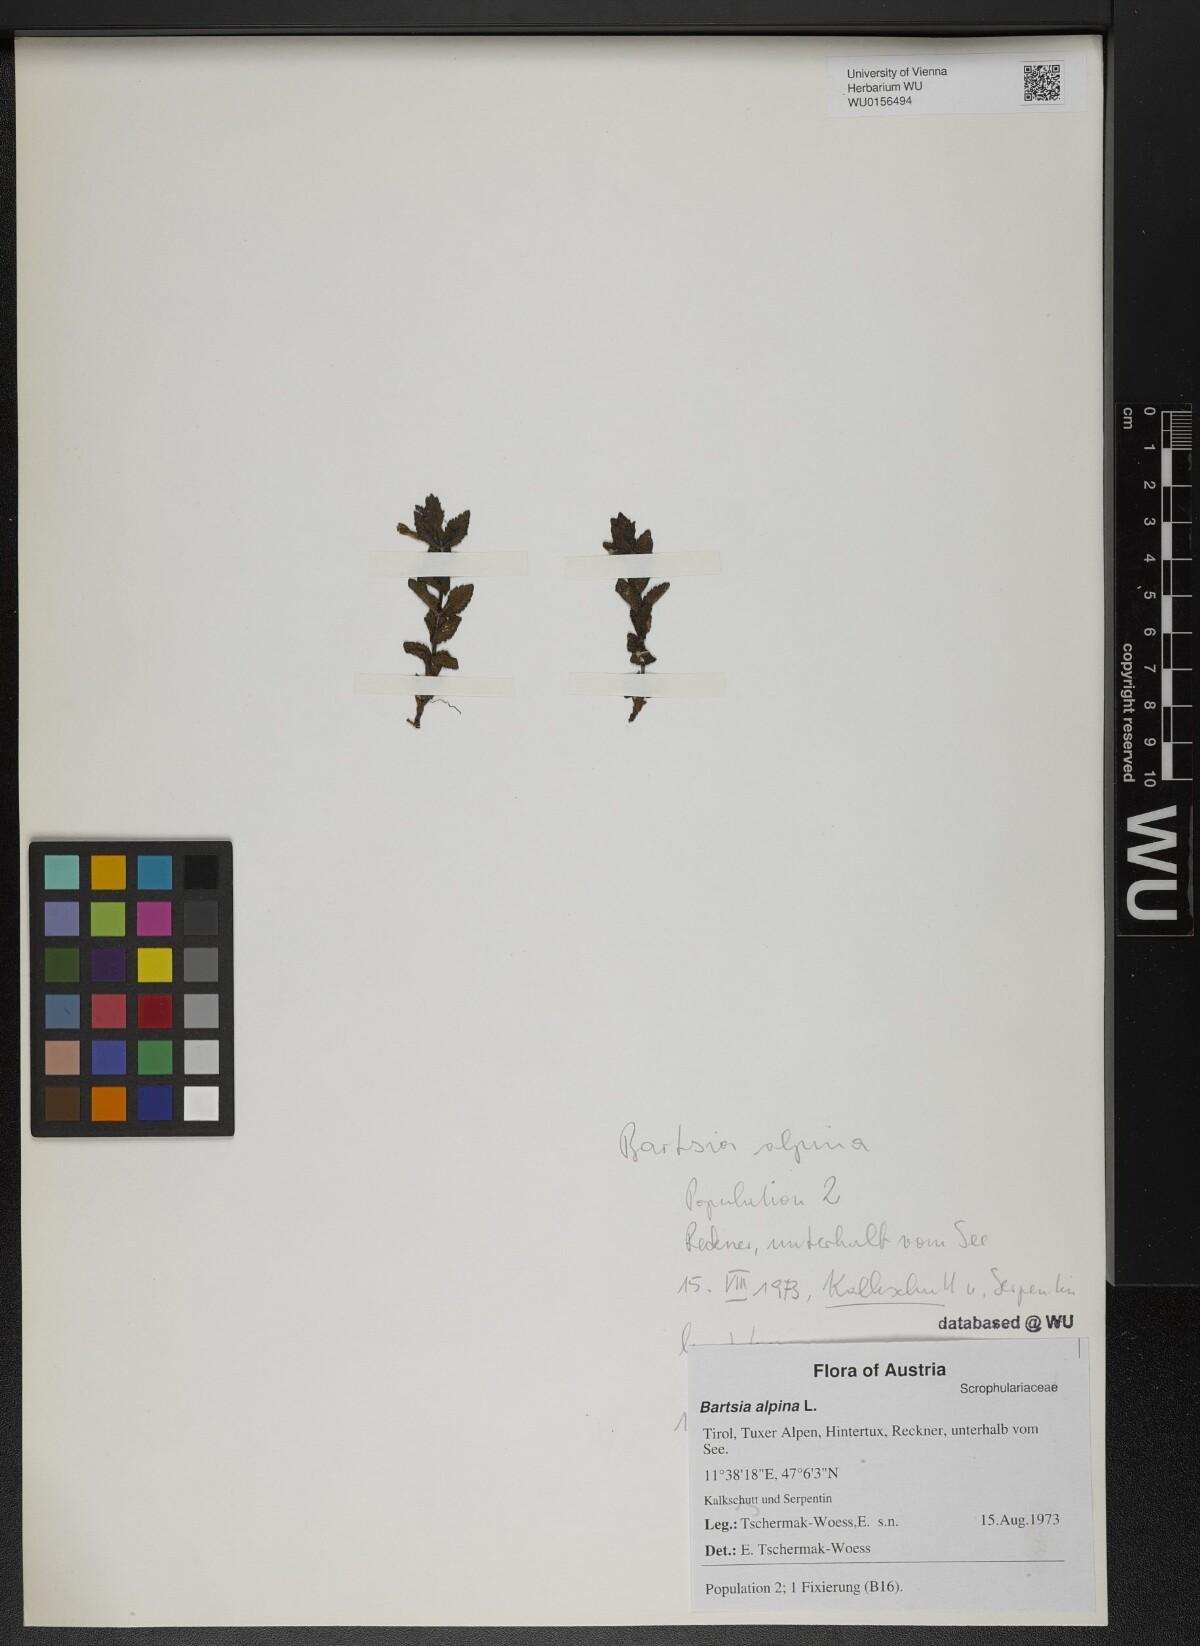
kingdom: Plantae
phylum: Tracheophyta
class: Magnoliopsida
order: Lamiales
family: Orobanchaceae
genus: Bartsia
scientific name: Bartsia alpina
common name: Alpine bartsia
